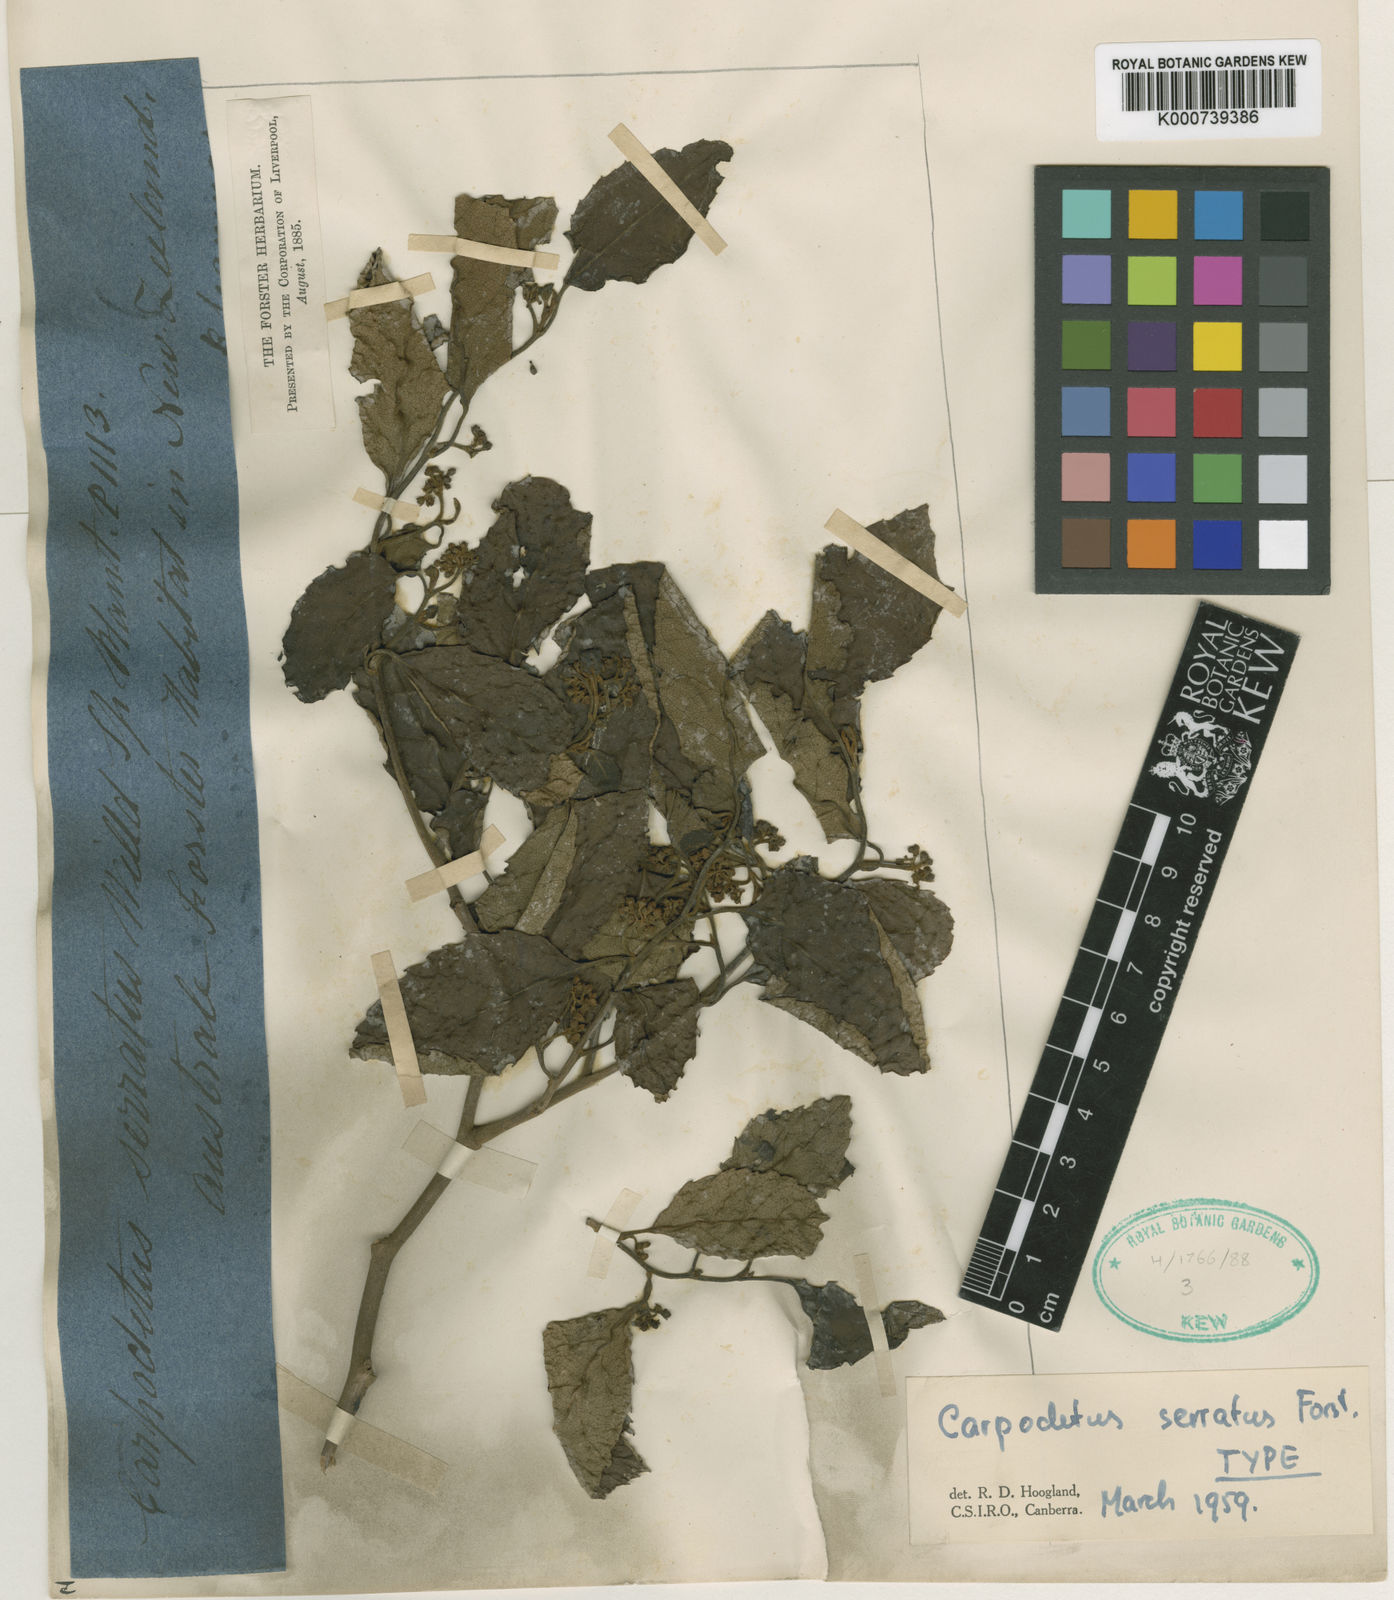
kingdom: Plantae
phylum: Tracheophyta
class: Magnoliopsida
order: Asterales
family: Rousseaceae
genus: Carpodetus
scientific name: Carpodetus serratus
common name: White mapau
